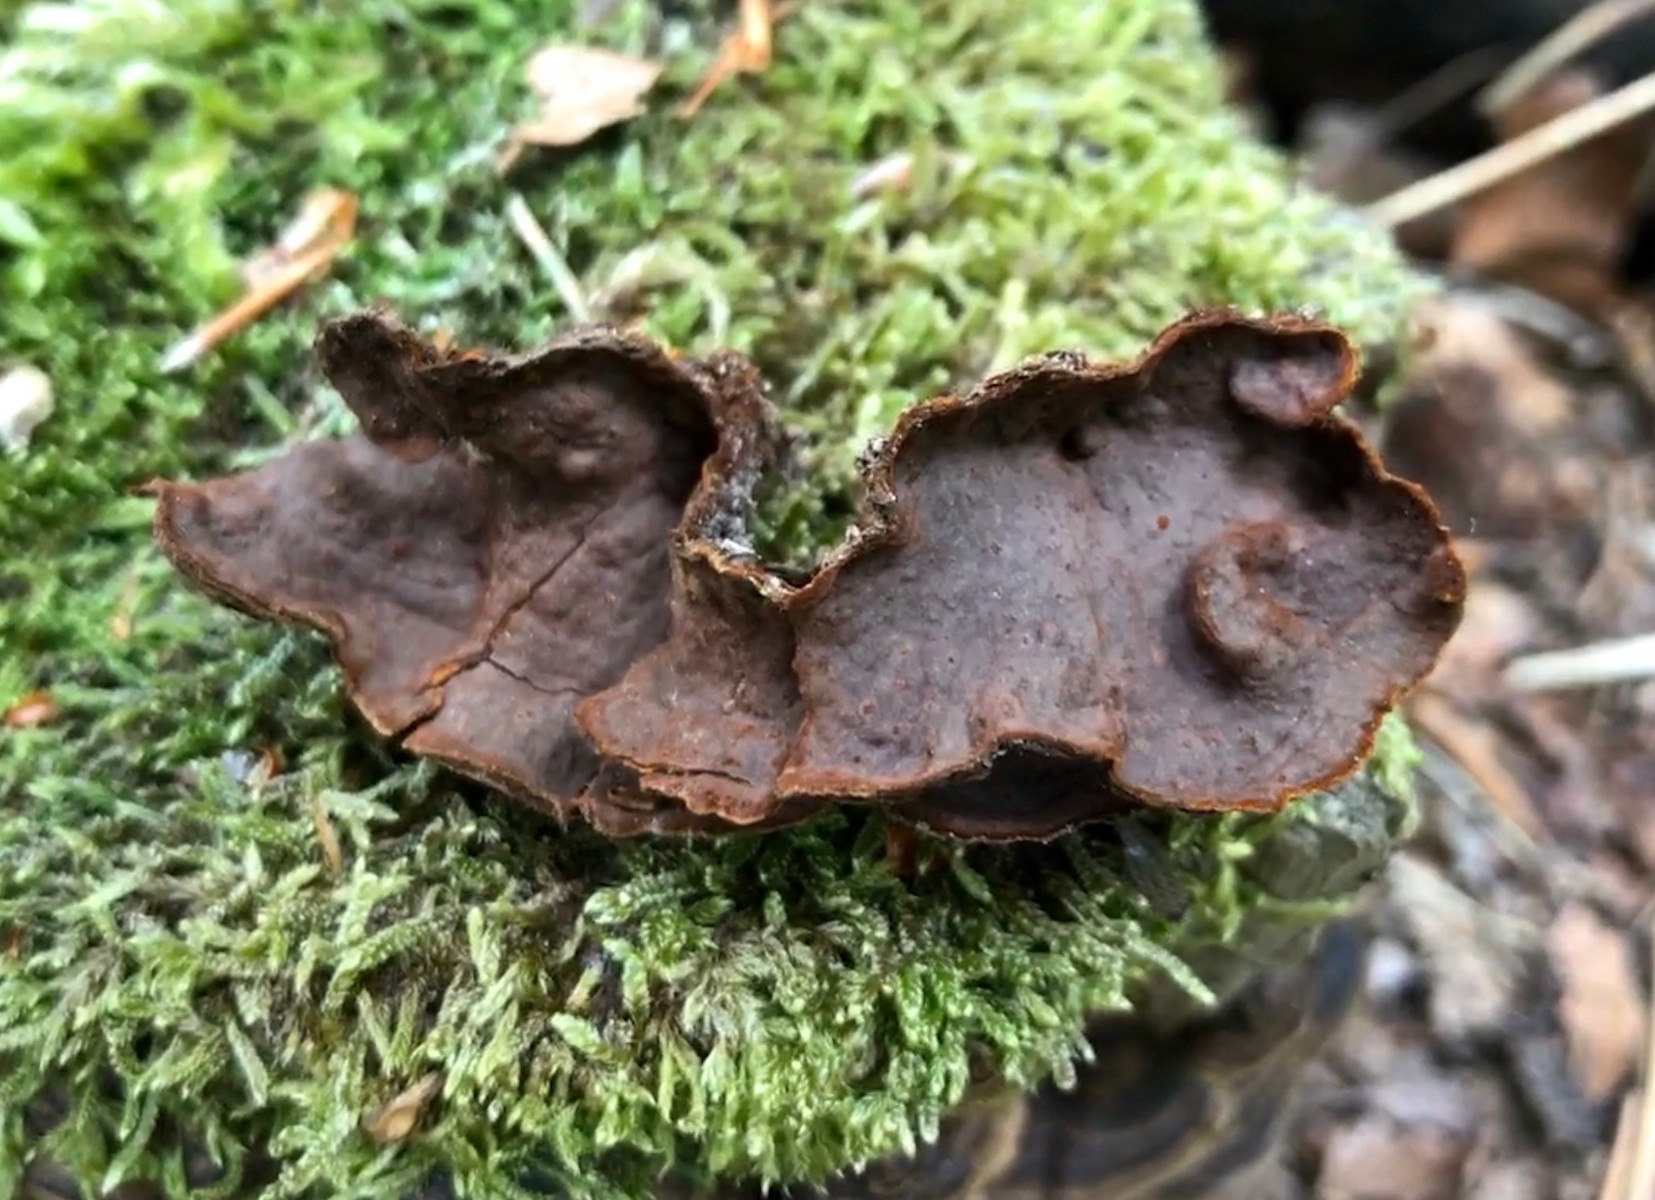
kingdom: Fungi
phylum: Basidiomycota
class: Agaricomycetes
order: Hymenochaetales
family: Hymenochaetaceae
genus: Hymenochaete
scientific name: Hymenochaete rubiginosa
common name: stiv ruslædersvamp
